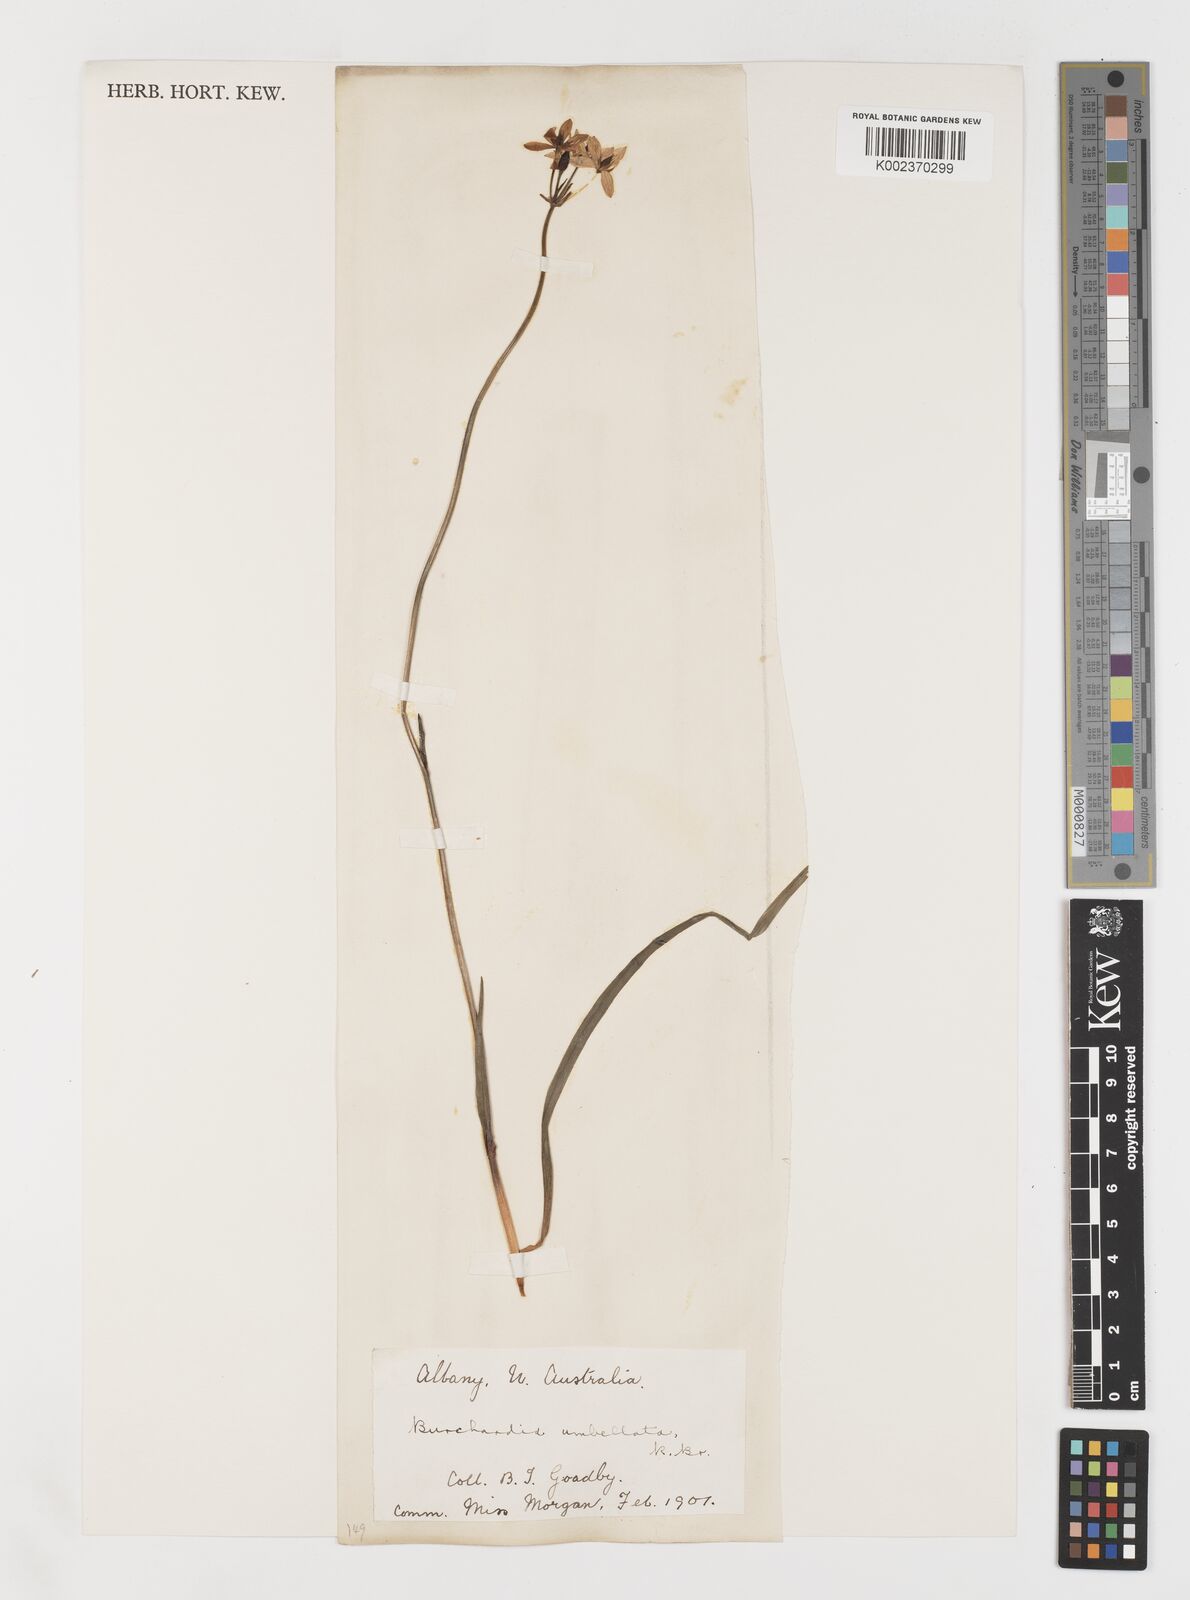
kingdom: Plantae
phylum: Tracheophyta
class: Liliopsida
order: Liliales
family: Colchicaceae
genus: Burchardia
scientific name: Burchardia umbellata
